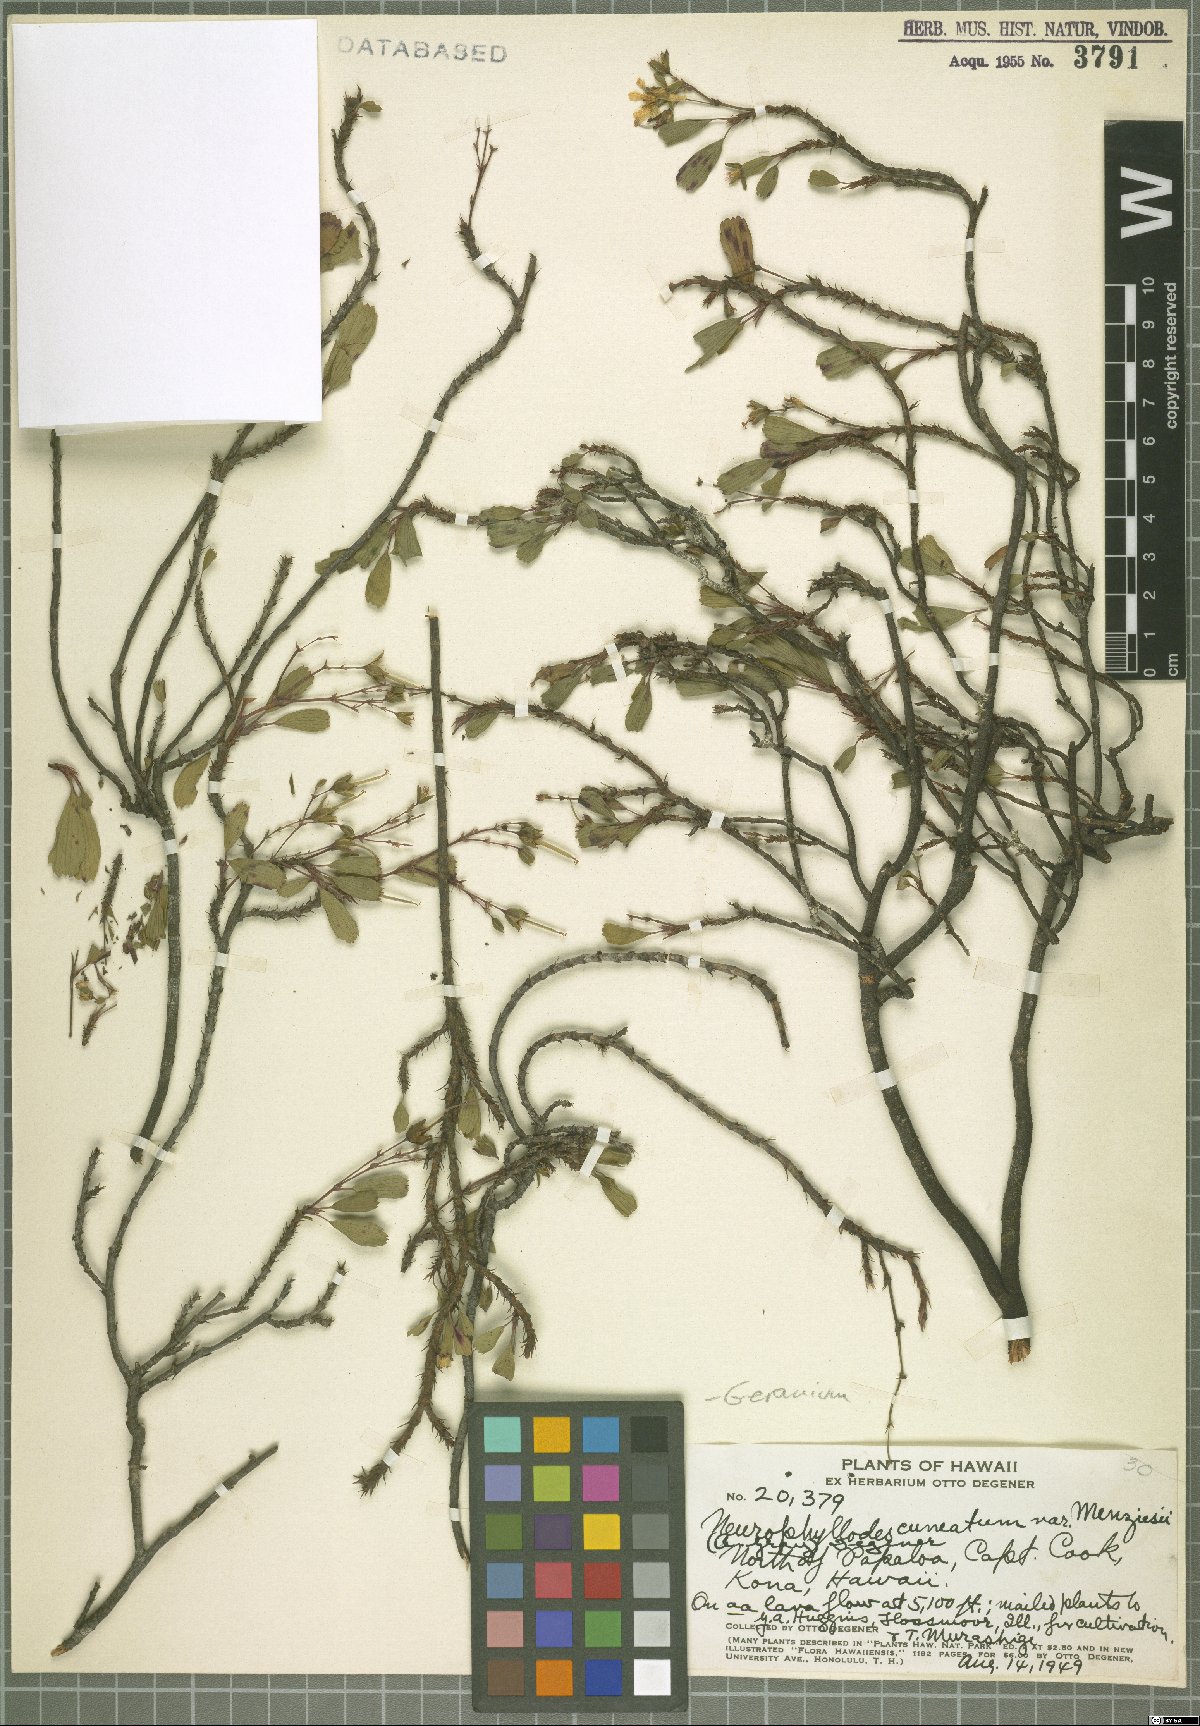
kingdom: Plantae
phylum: Tracheophyta
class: Magnoliopsida
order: Geraniales
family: Geraniaceae
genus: Geranium
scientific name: Geranium cuneatum
